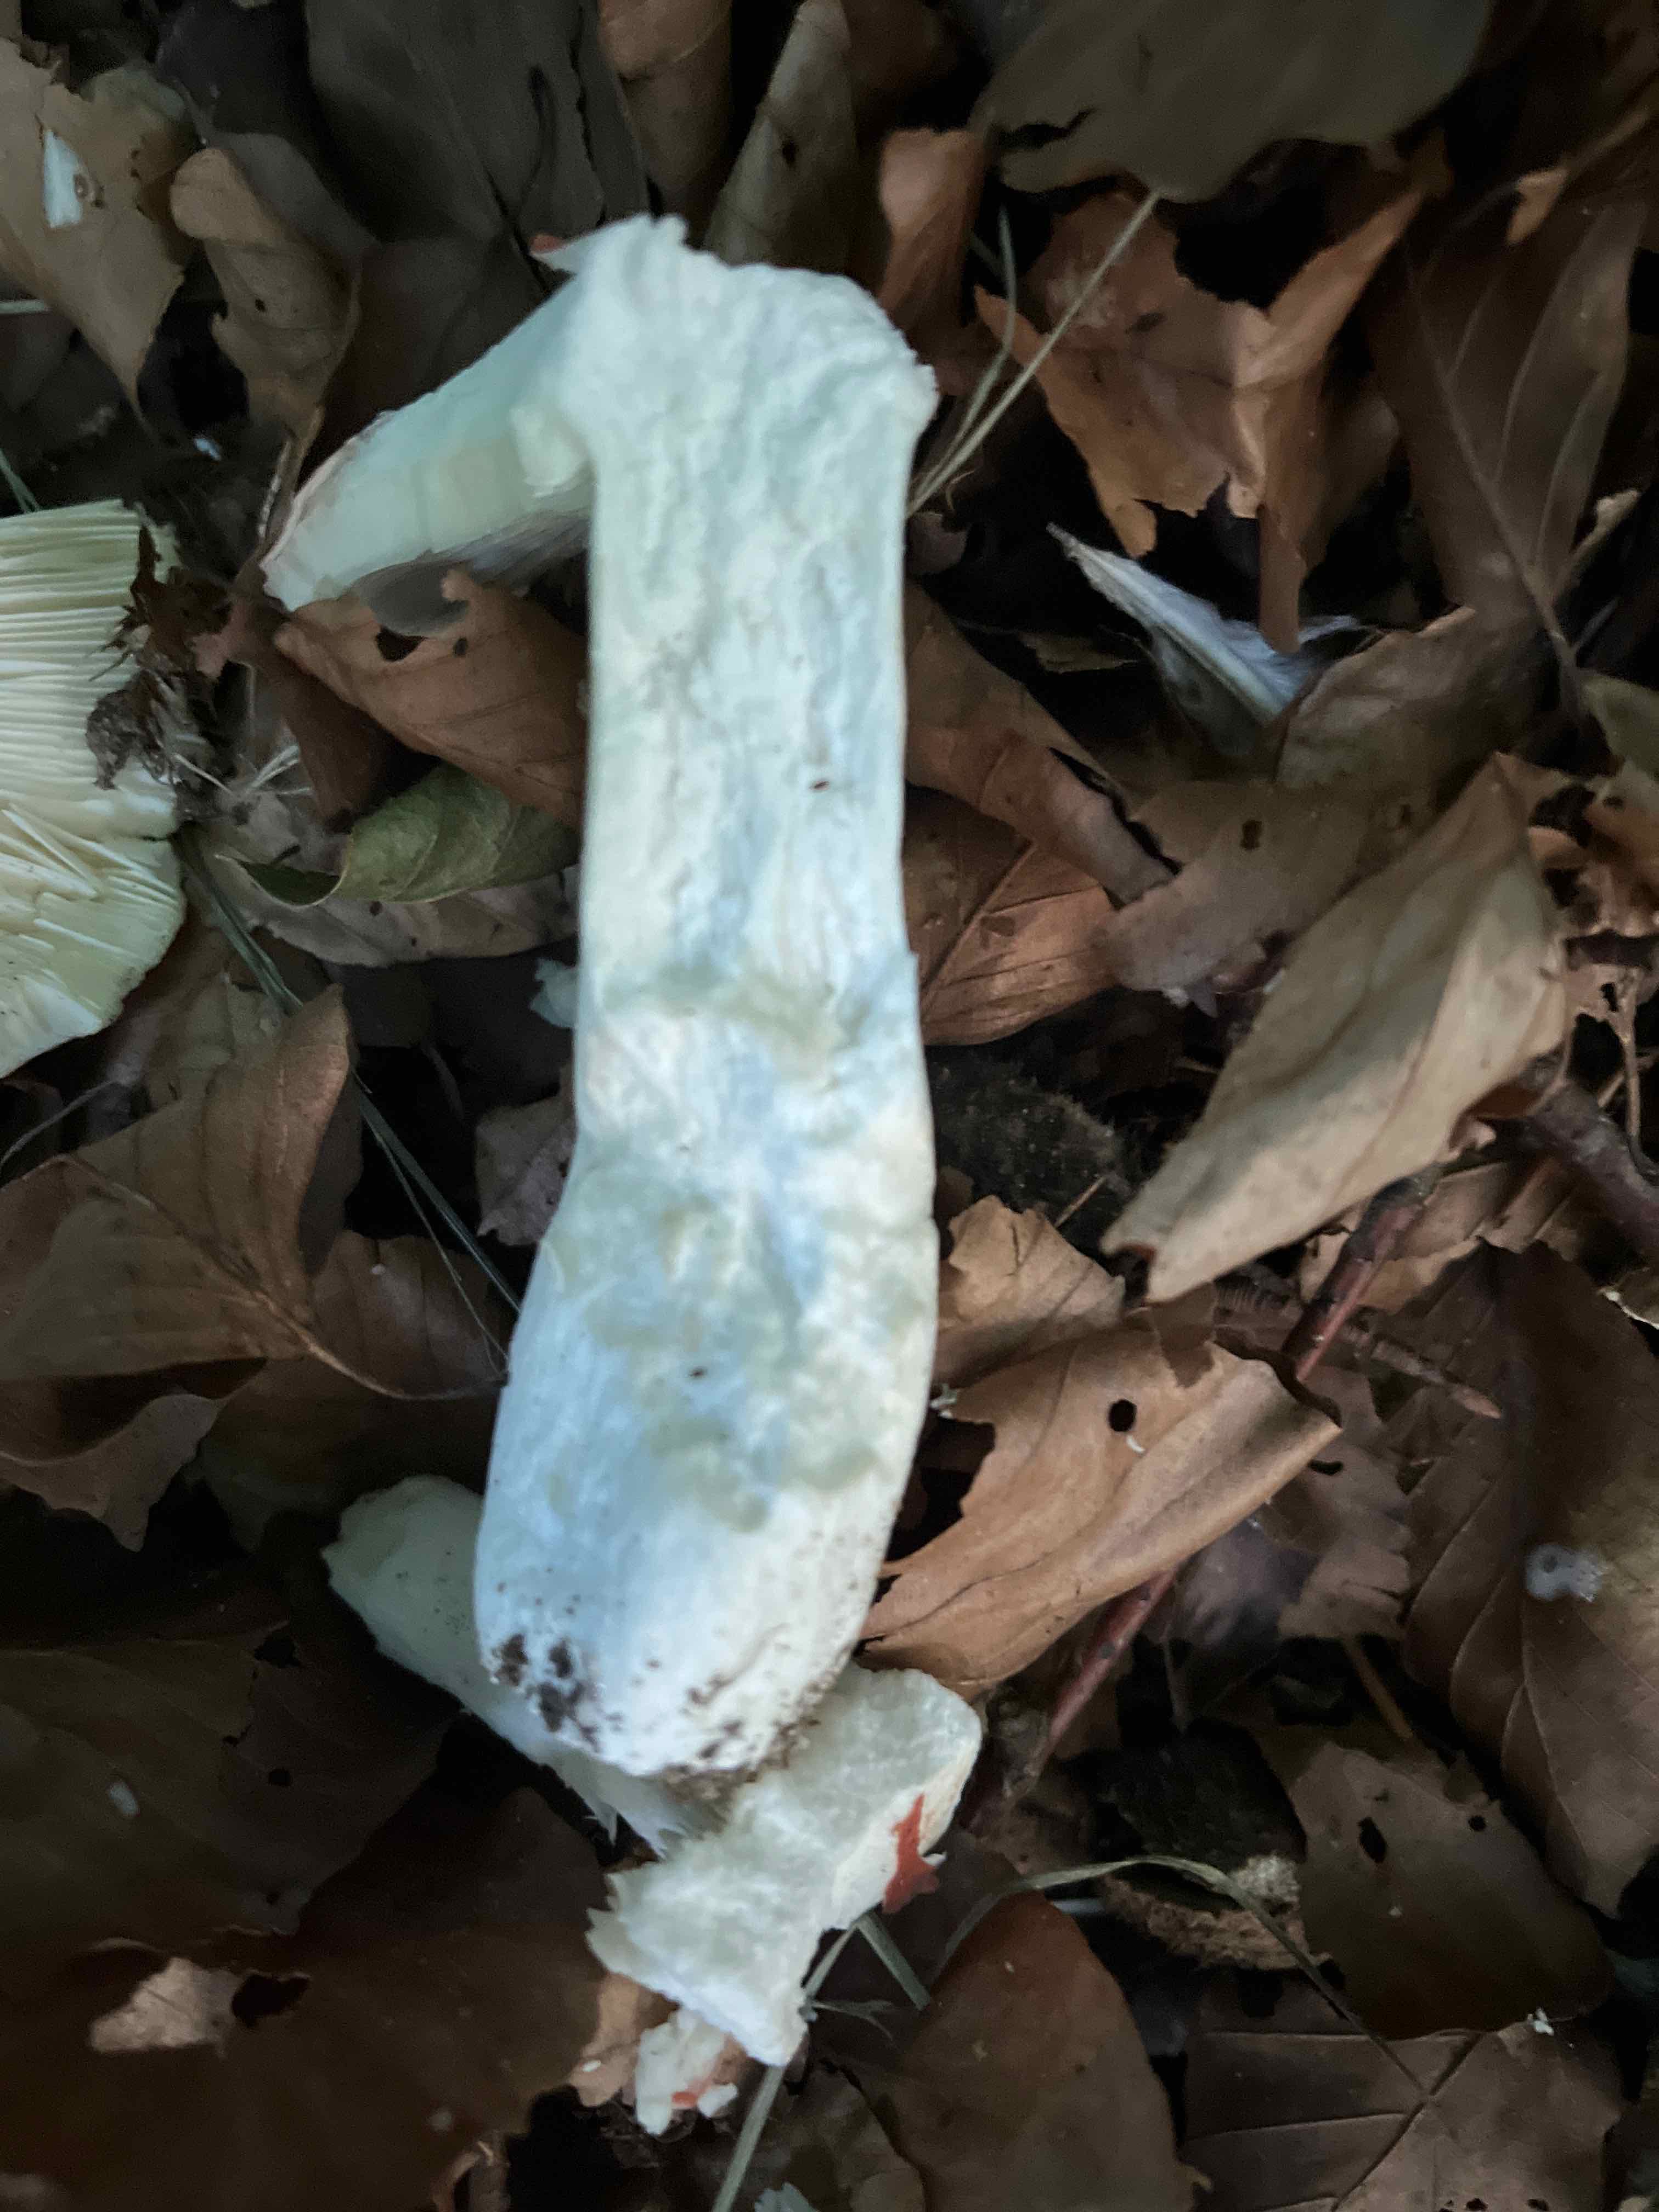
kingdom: Fungi
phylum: Basidiomycota
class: Agaricomycetes
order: Russulales
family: Russulaceae
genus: Russula
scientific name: Russula
